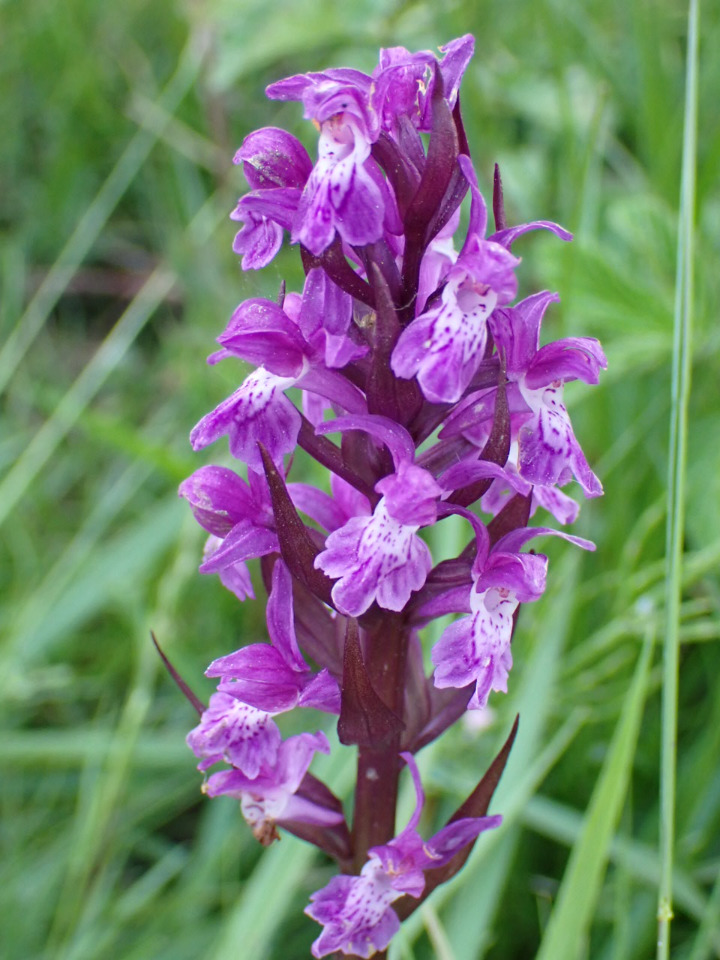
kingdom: Plantae
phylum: Tracheophyta
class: Liliopsida
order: Asparagales
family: Orchidaceae
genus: Dactylorhiza
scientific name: Dactylorhiza majalis
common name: Maj-gøgeurt
